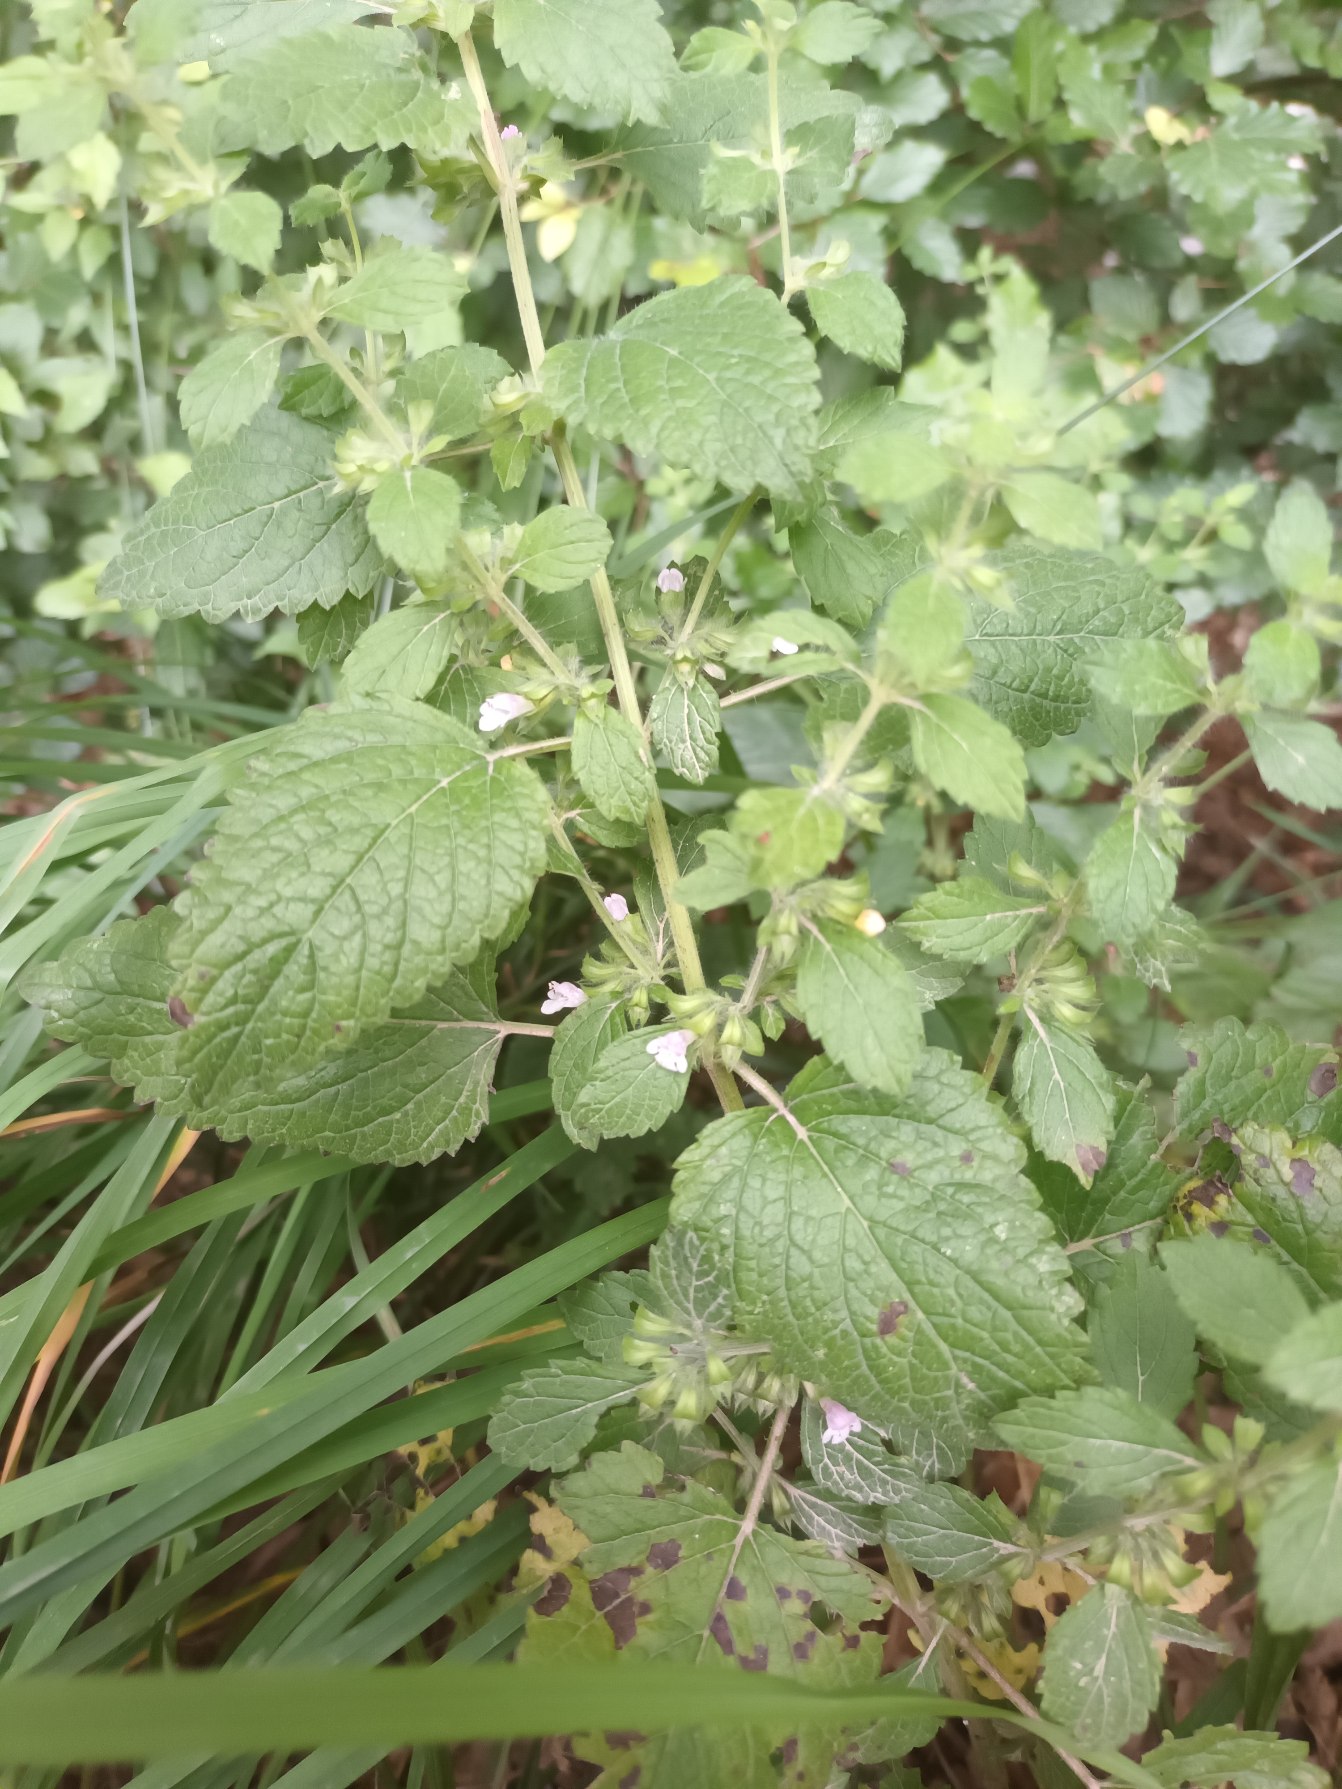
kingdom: Plantae
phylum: Tracheophyta
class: Magnoliopsida
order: Lamiales
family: Lamiaceae
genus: Melissa
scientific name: Melissa officinalis
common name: Citronmelisse
